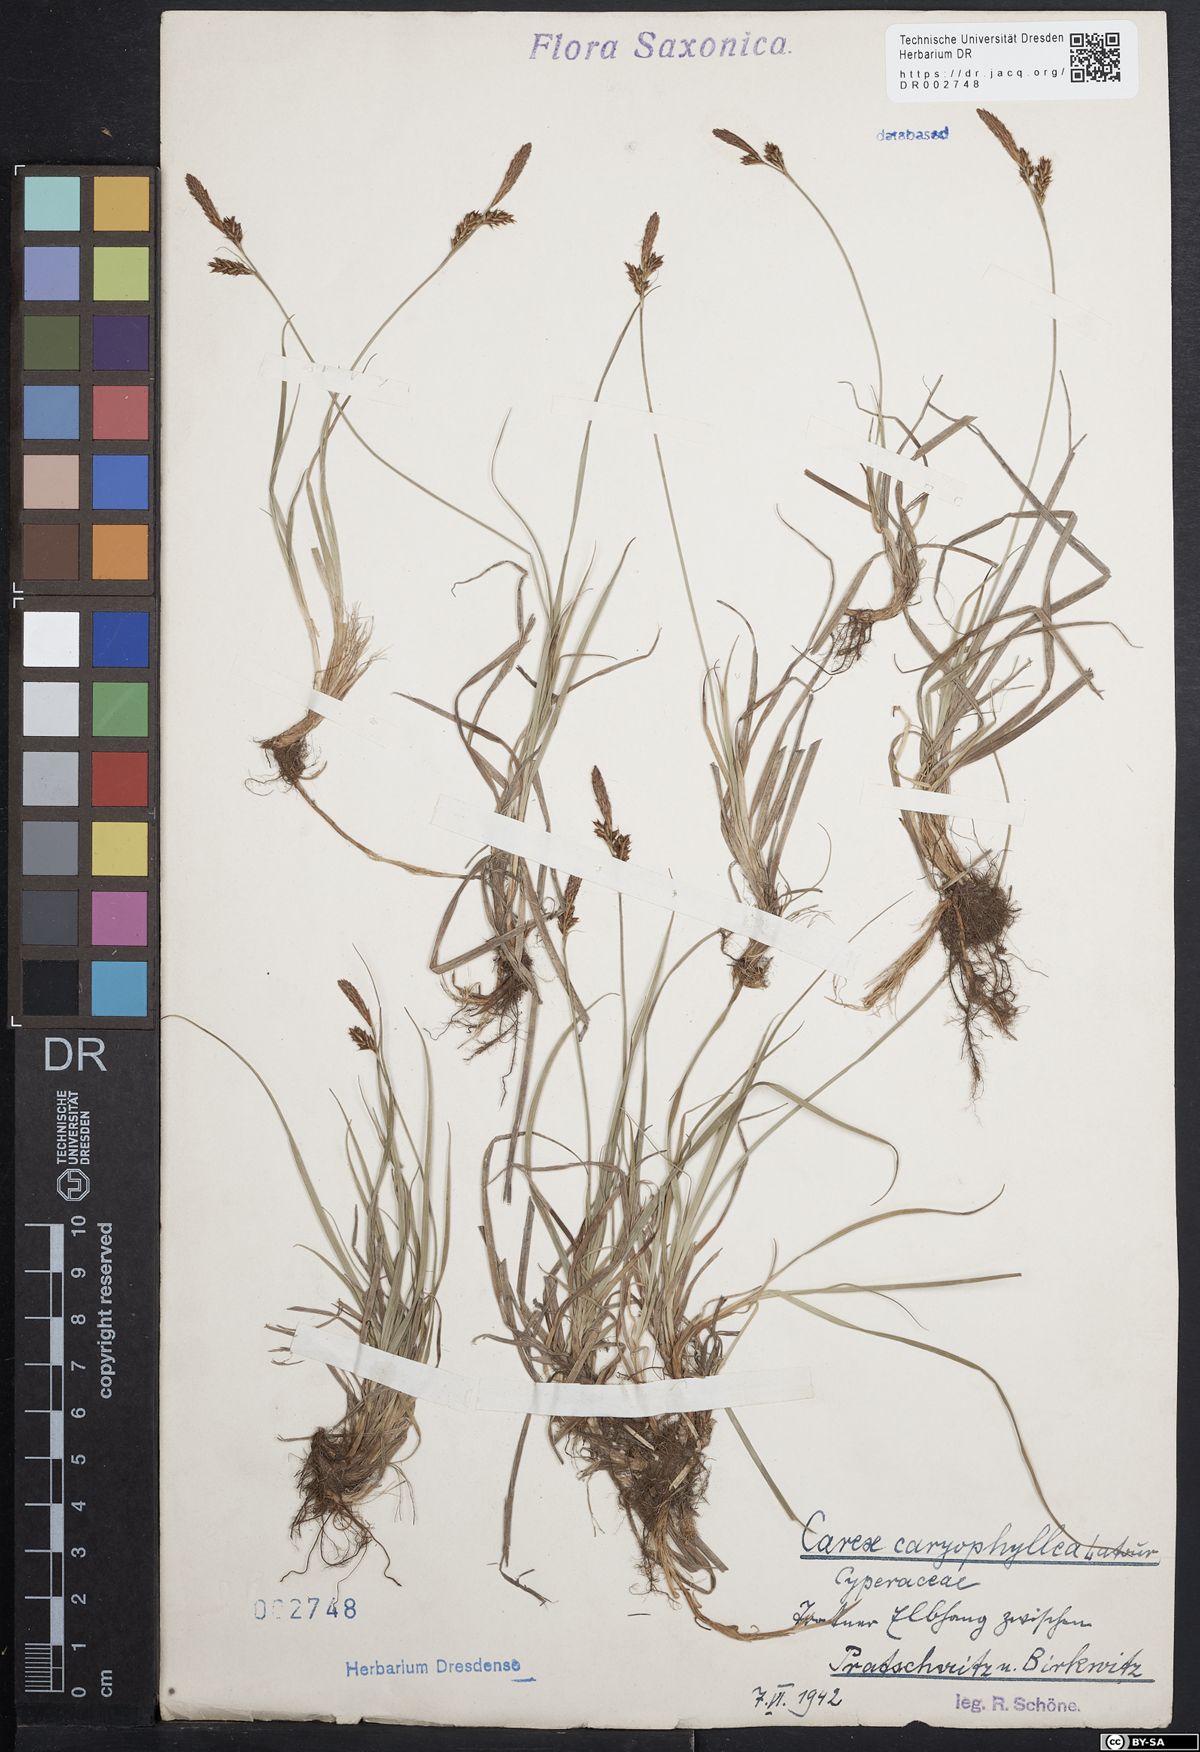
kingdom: Plantae
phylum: Tracheophyta
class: Liliopsida
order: Poales
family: Cyperaceae
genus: Carex
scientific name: Carex caryophyllea
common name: Spring sedge
